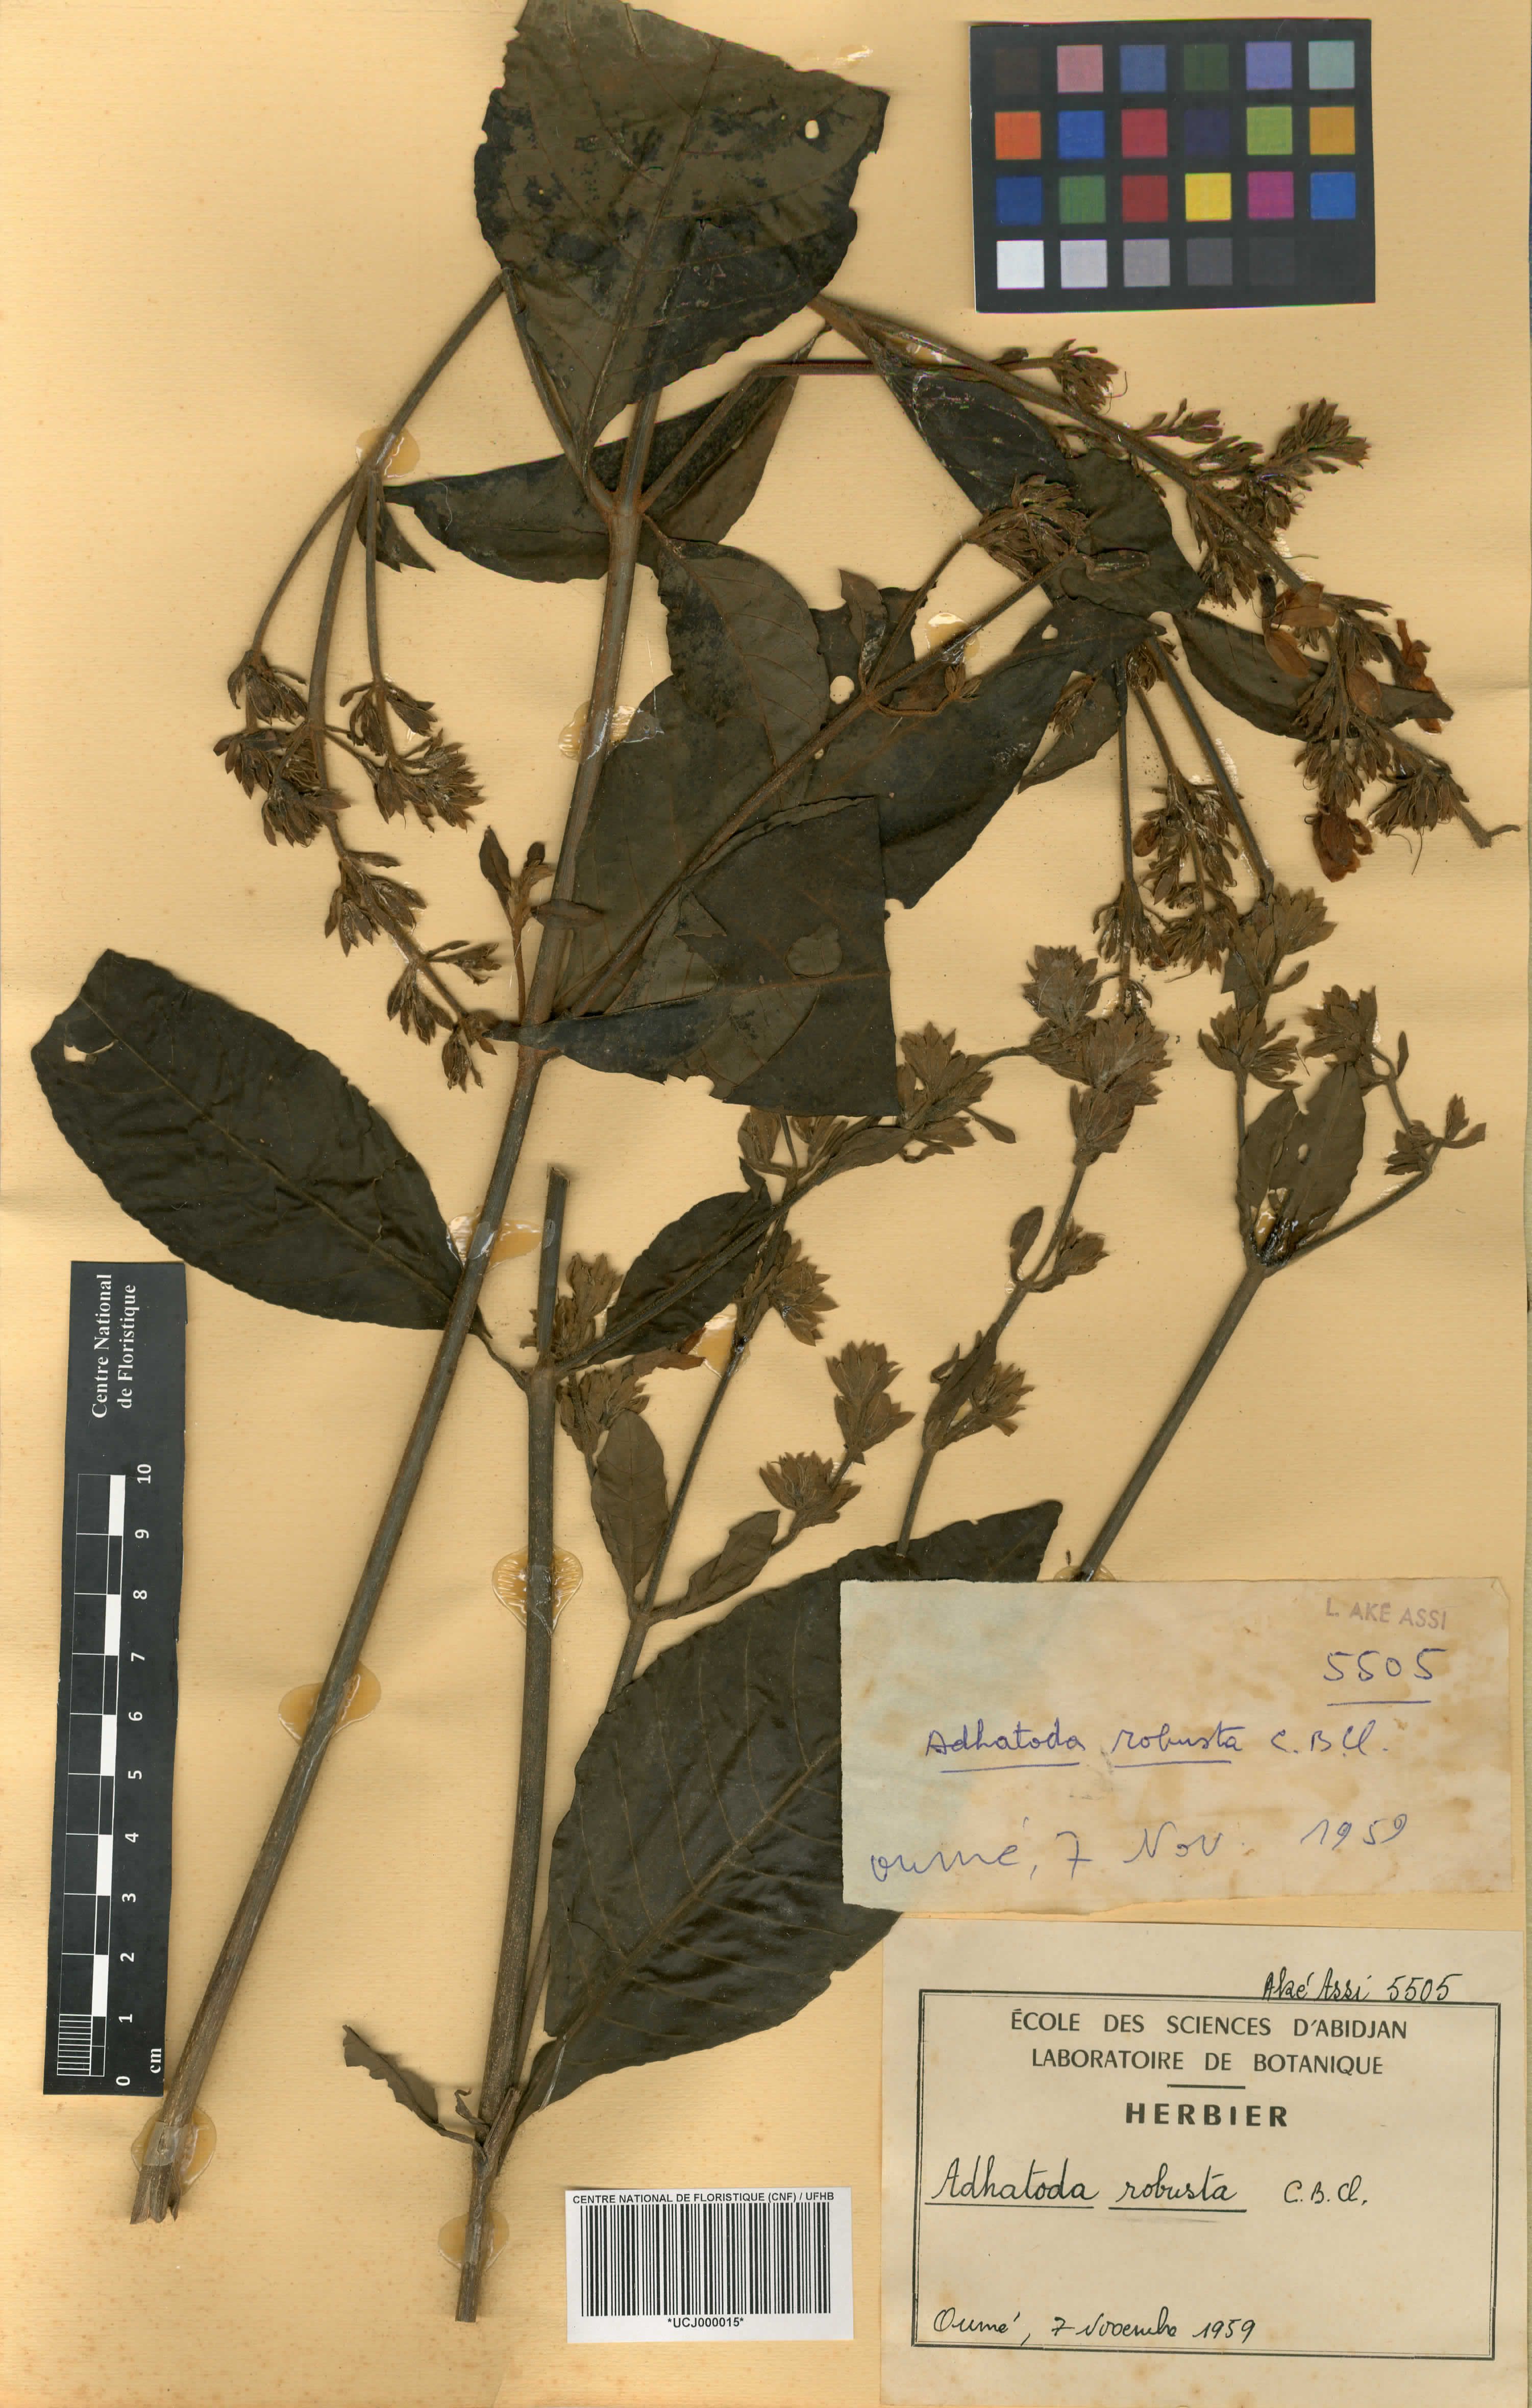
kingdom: Plantae
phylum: Tracheophyta
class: Magnoliopsida
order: Lamiales
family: Acanthaceae
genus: Justicia
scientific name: Justicia maxima
